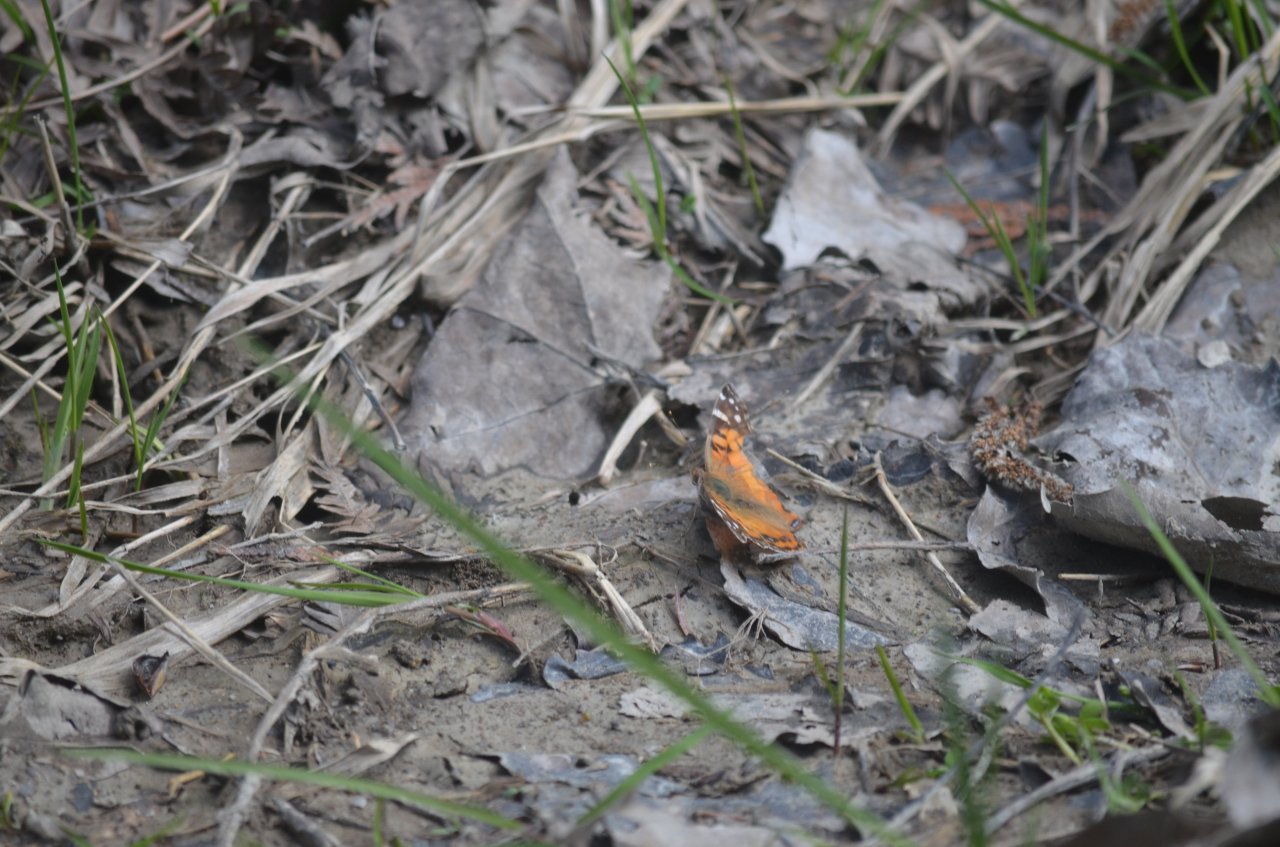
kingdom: Animalia
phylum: Arthropoda
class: Insecta
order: Lepidoptera
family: Nymphalidae
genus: Vanessa
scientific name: Vanessa virginiensis
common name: American Lady
